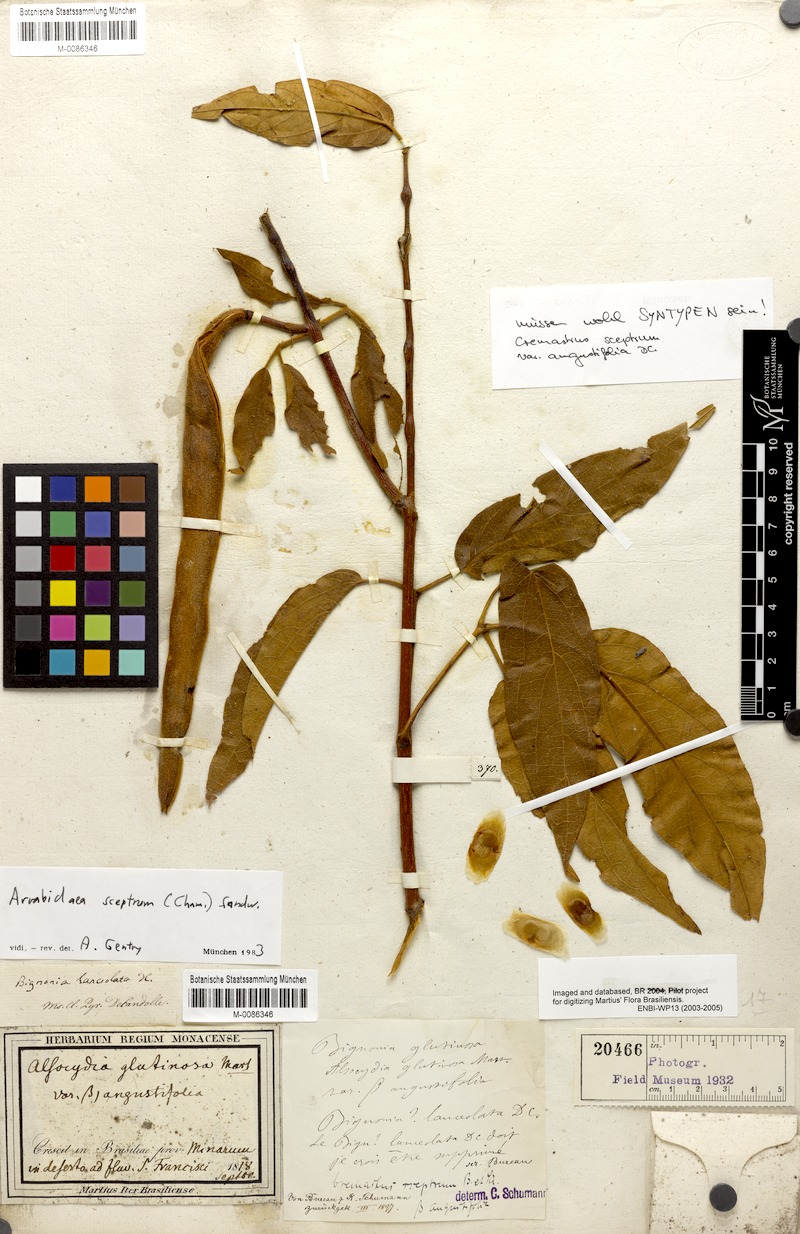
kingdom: Plantae
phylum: Tracheophyta
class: Magnoliopsida
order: Lamiales
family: Bignoniaceae
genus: Anemopaegma
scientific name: Anemopaegma velutinum
